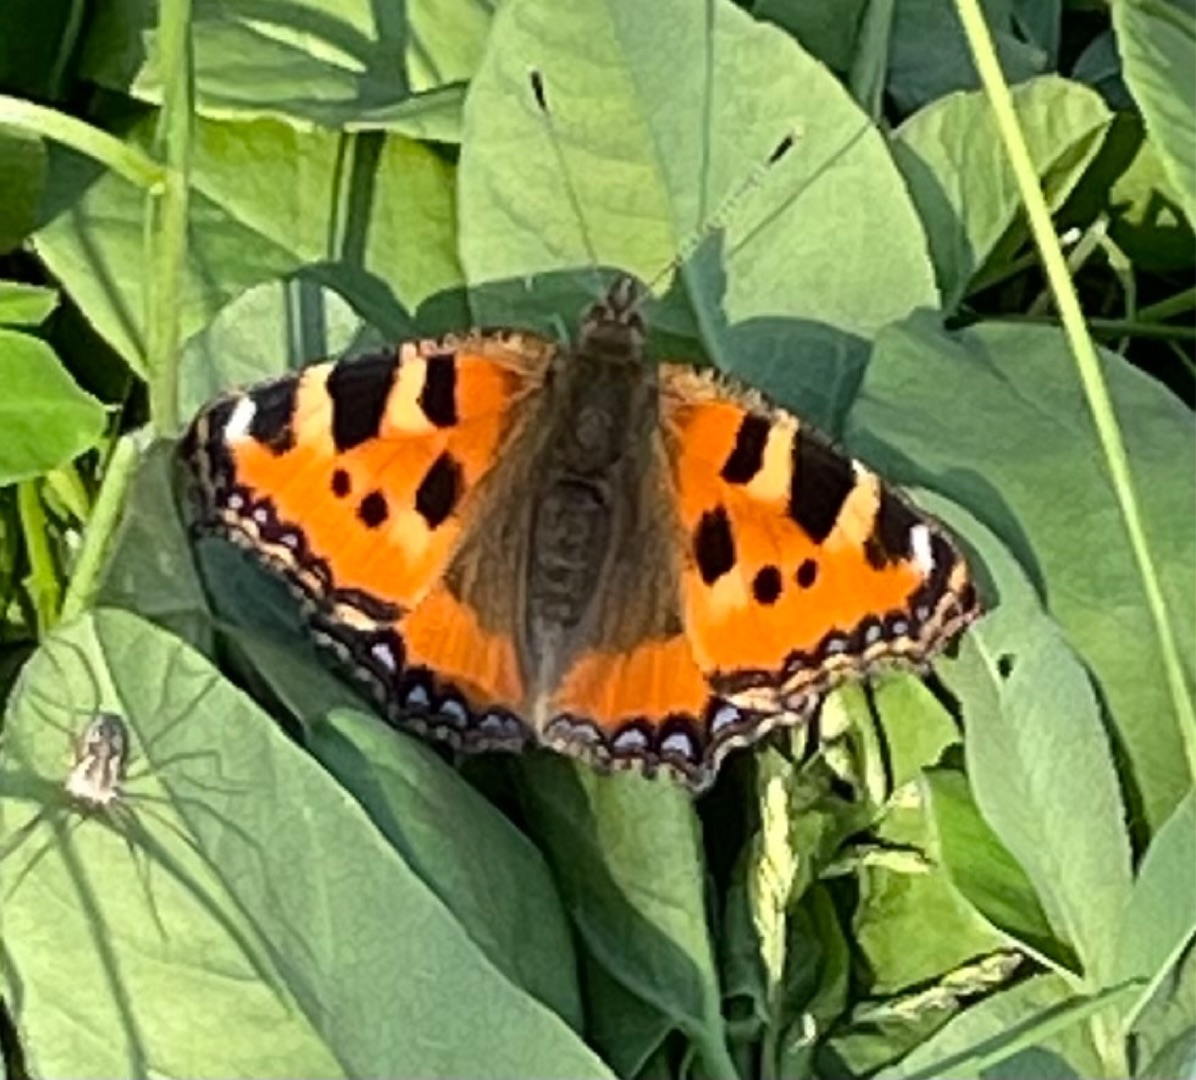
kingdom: Animalia
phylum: Arthropoda
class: Insecta
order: Lepidoptera
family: Nymphalidae
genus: Aglais
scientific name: Aglais urticae
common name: Nældens takvinge
